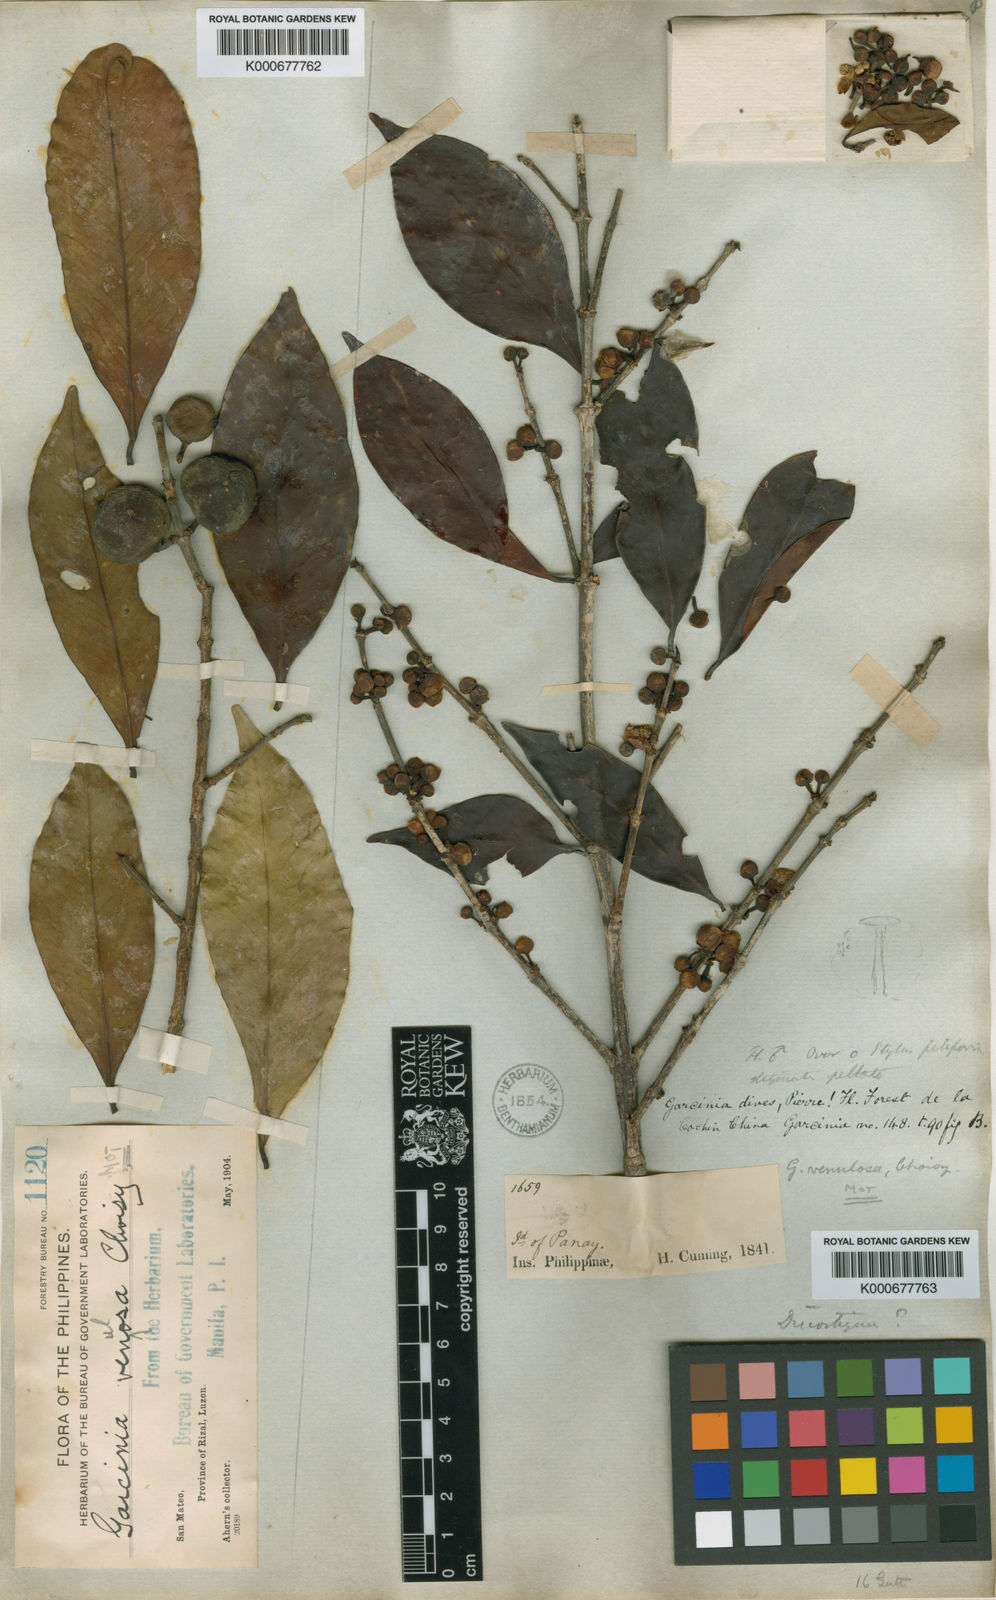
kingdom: Plantae
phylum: Tracheophyta
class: Magnoliopsida
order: Malpighiales
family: Clusiaceae
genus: Garcinia
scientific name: Garcinia dives
